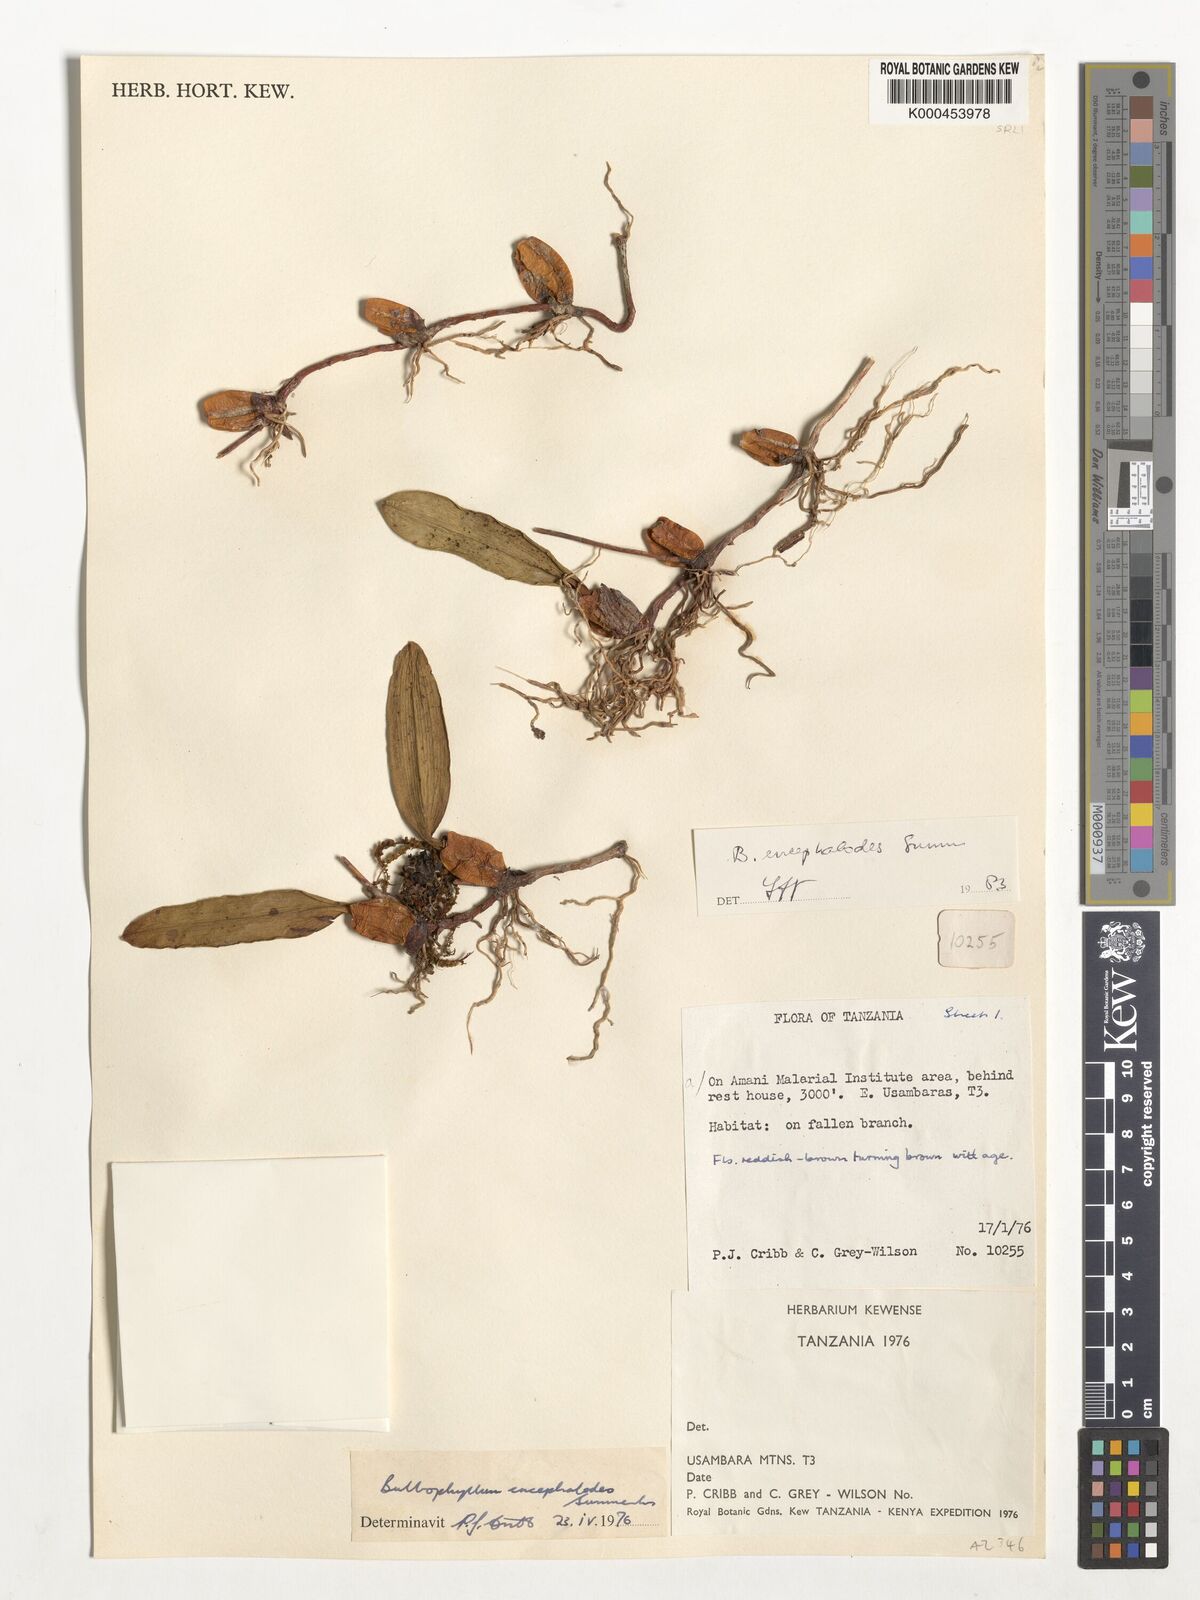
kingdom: Plantae
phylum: Tracheophyta
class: Liliopsida
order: Asparagales
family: Orchidaceae
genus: Bulbophyllum
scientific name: Bulbophyllum encephalodes
